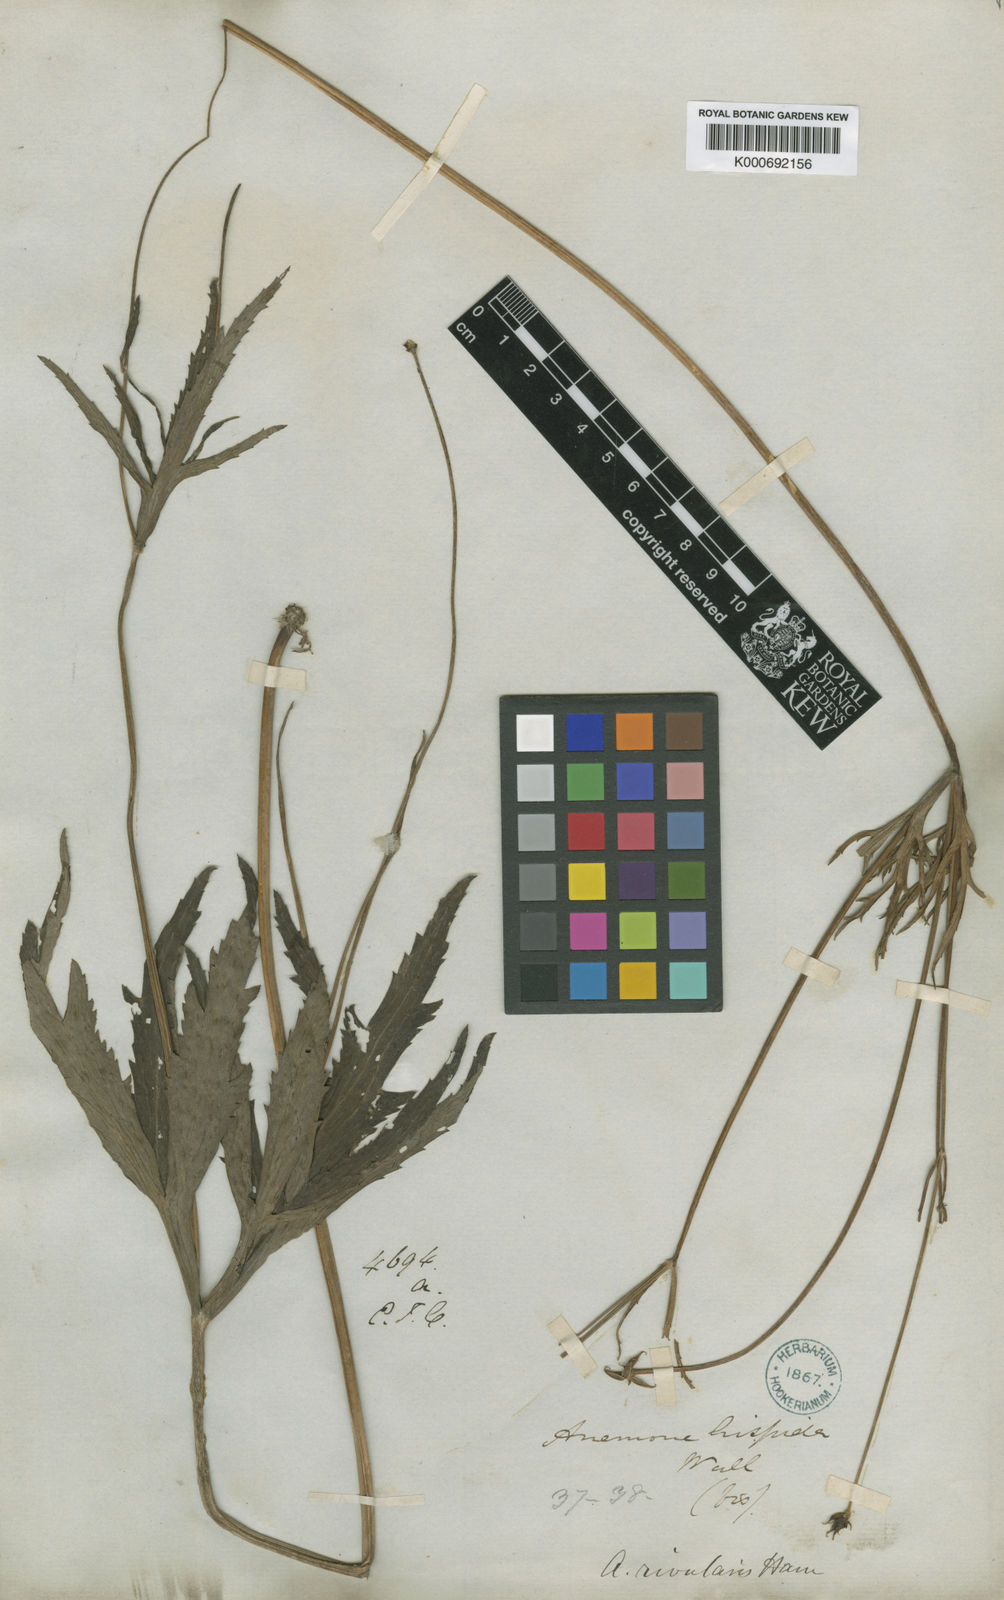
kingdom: Plantae
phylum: Tracheophyta
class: Magnoliopsida
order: Ranunculales
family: Ranunculaceae
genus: Eriocapitella
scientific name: Eriocapitella rivularis
